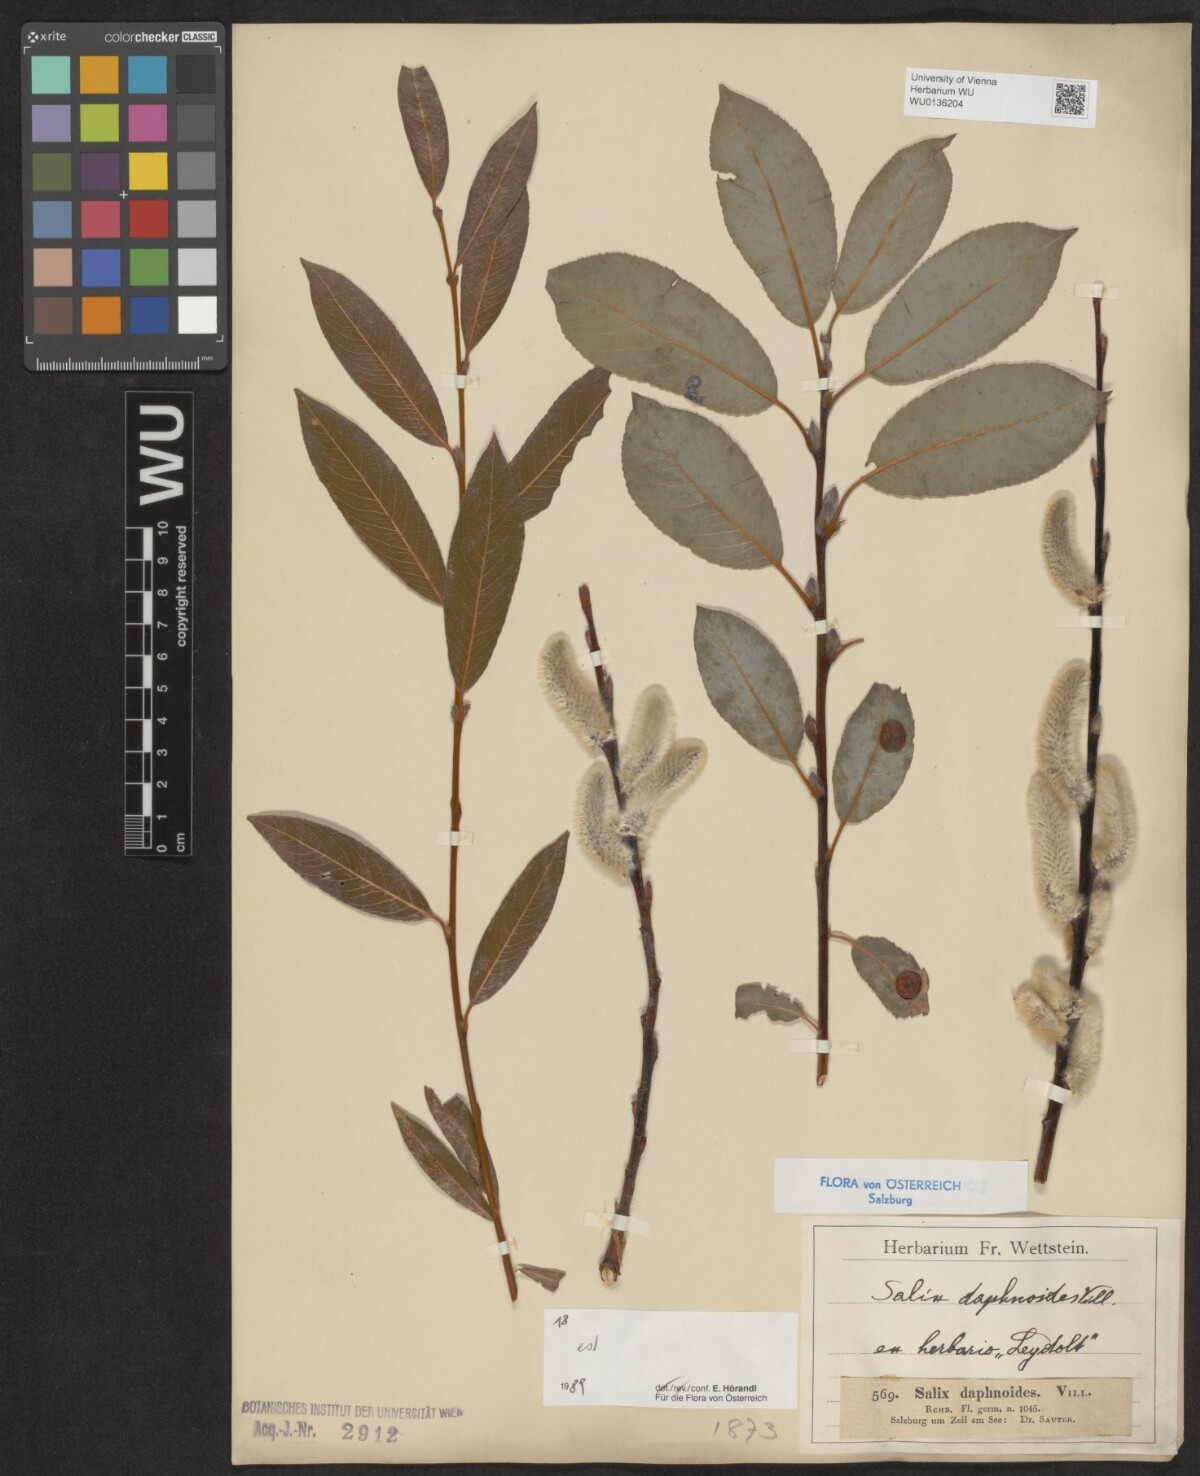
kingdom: Plantae
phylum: Tracheophyta
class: Magnoliopsida
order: Malpighiales
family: Salicaceae
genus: Salix
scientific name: Salix daphnoides
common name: European violet-willow
